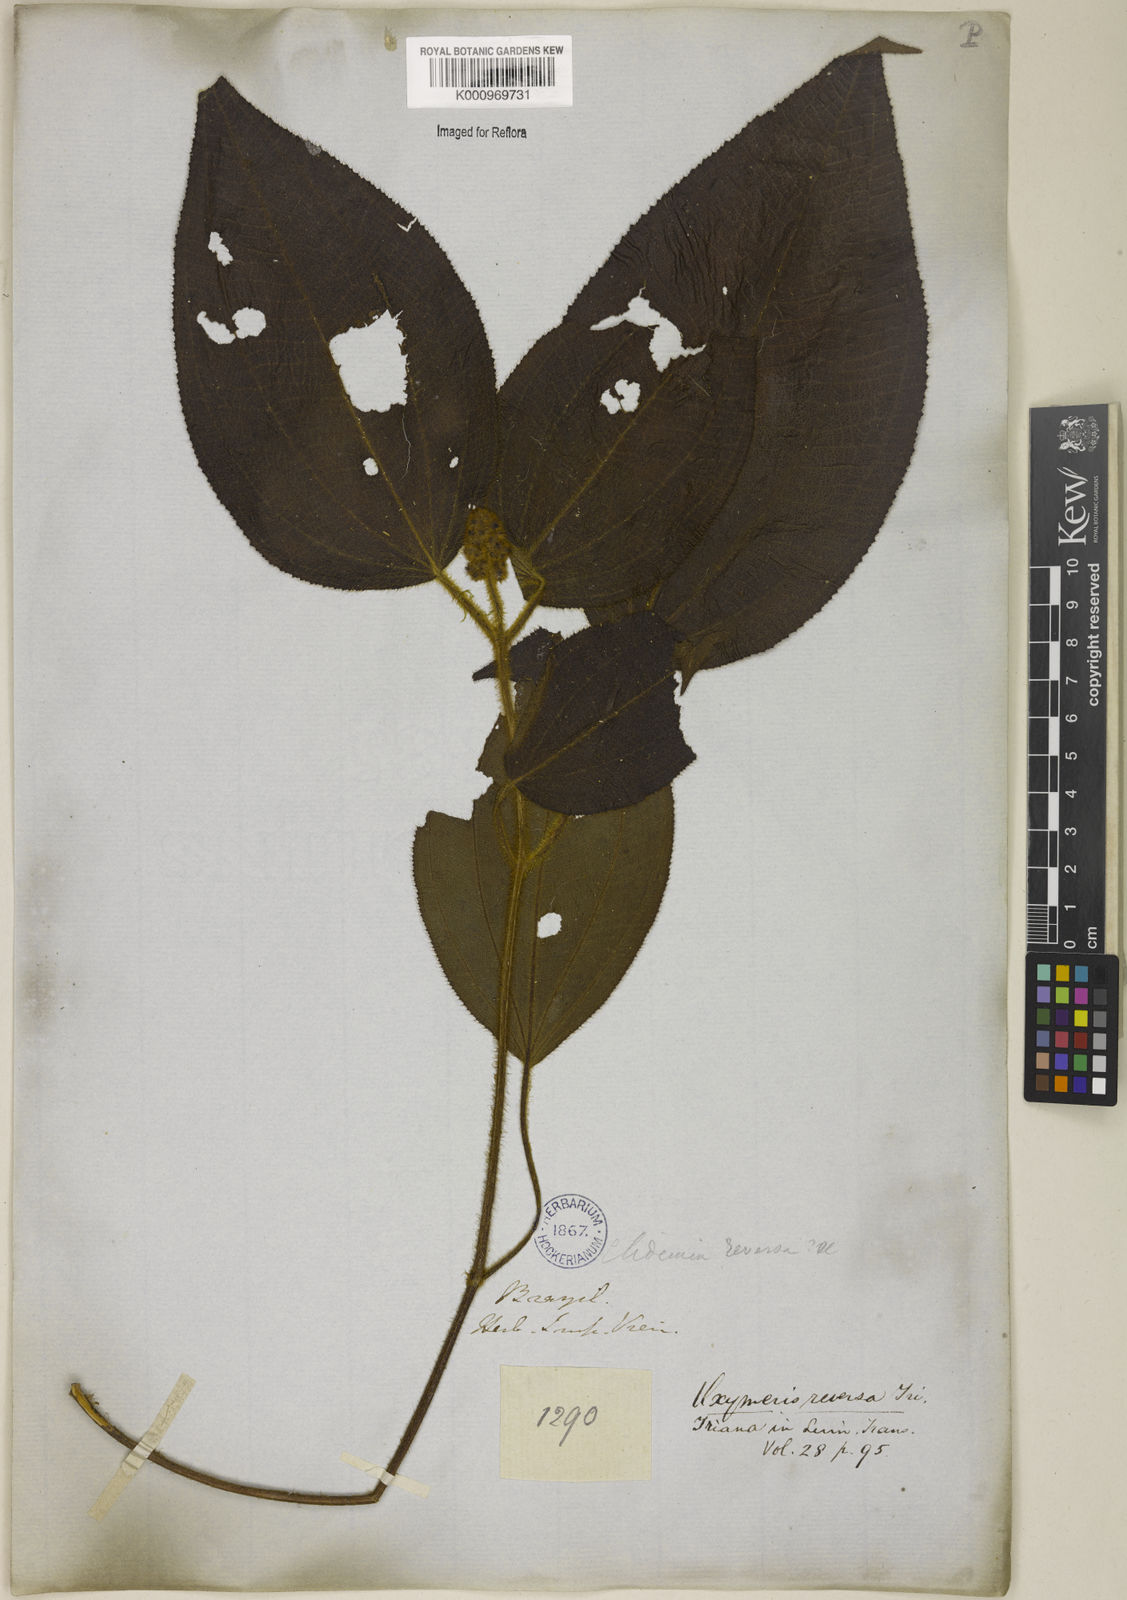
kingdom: Plantae
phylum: Tracheophyta
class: Magnoliopsida
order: Myrtales
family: Melastomataceae
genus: Miconia
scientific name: Miconia reversa
